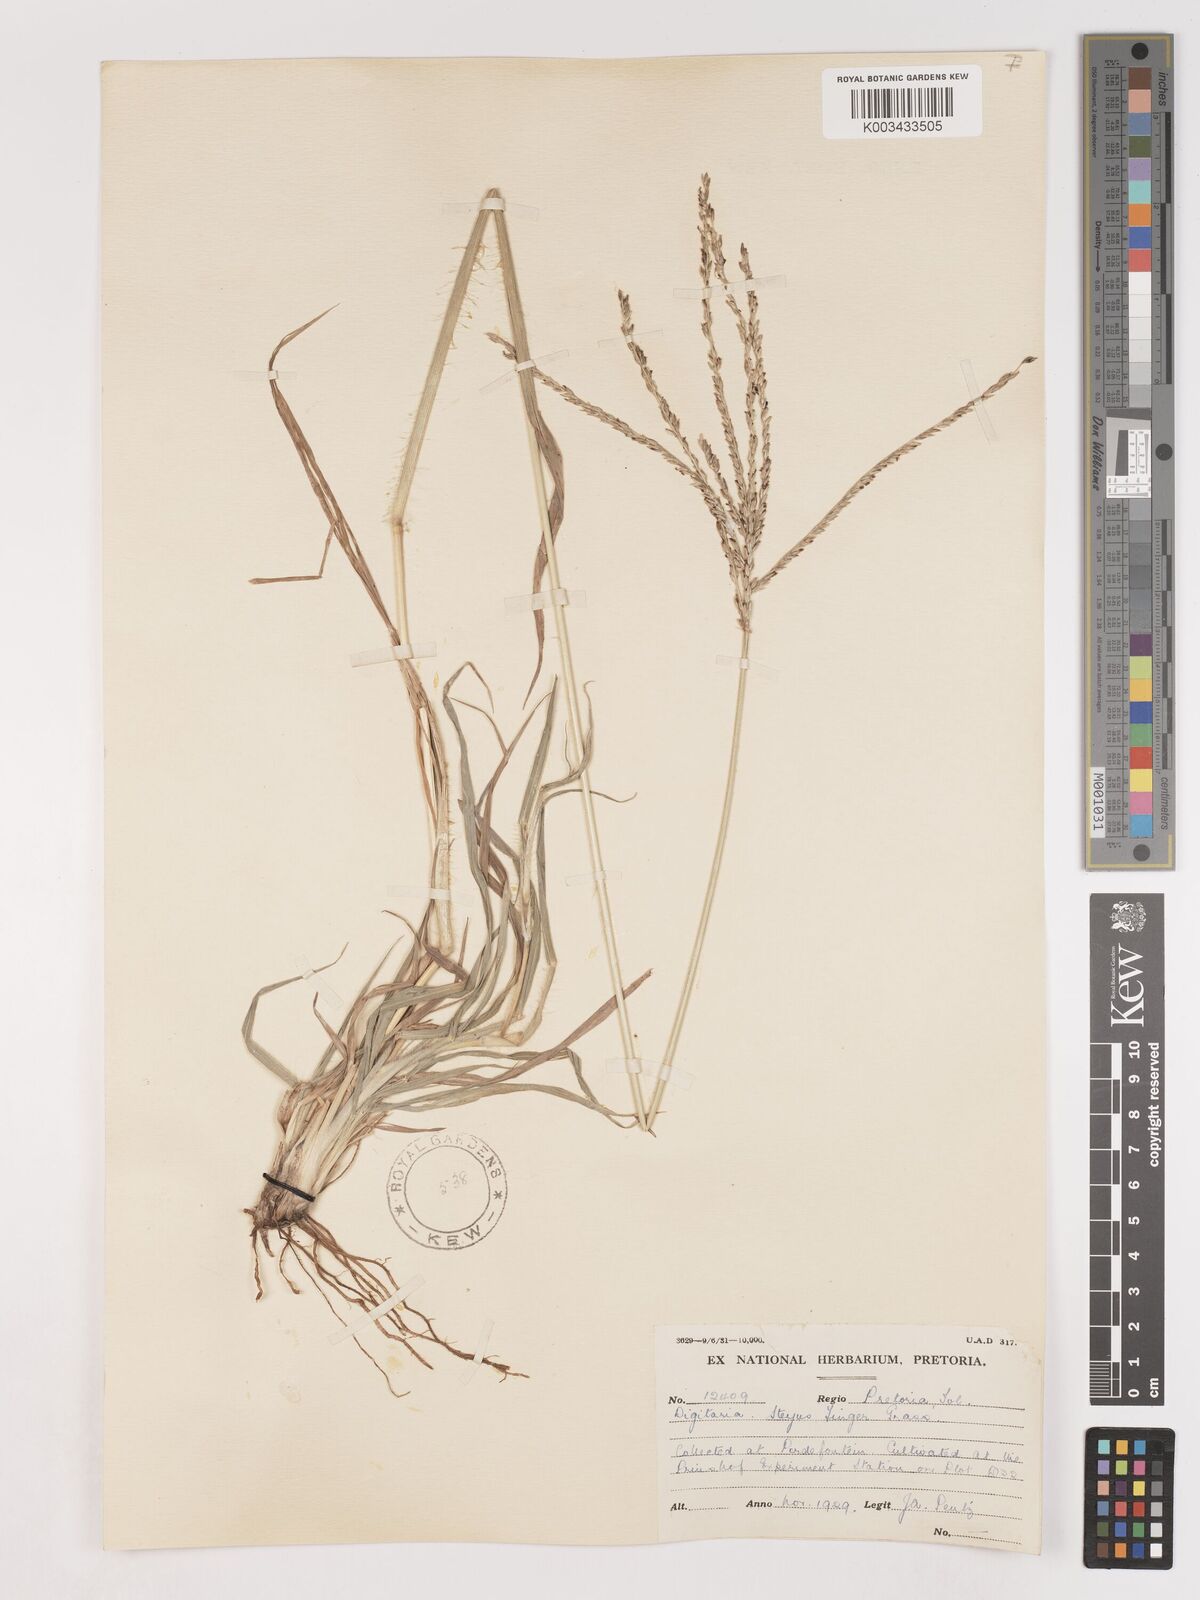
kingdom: Plantae
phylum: Tracheophyta
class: Liliopsida
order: Poales
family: Poaceae
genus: Digitaria
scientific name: Digitaria eriantha
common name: Digitgrass
